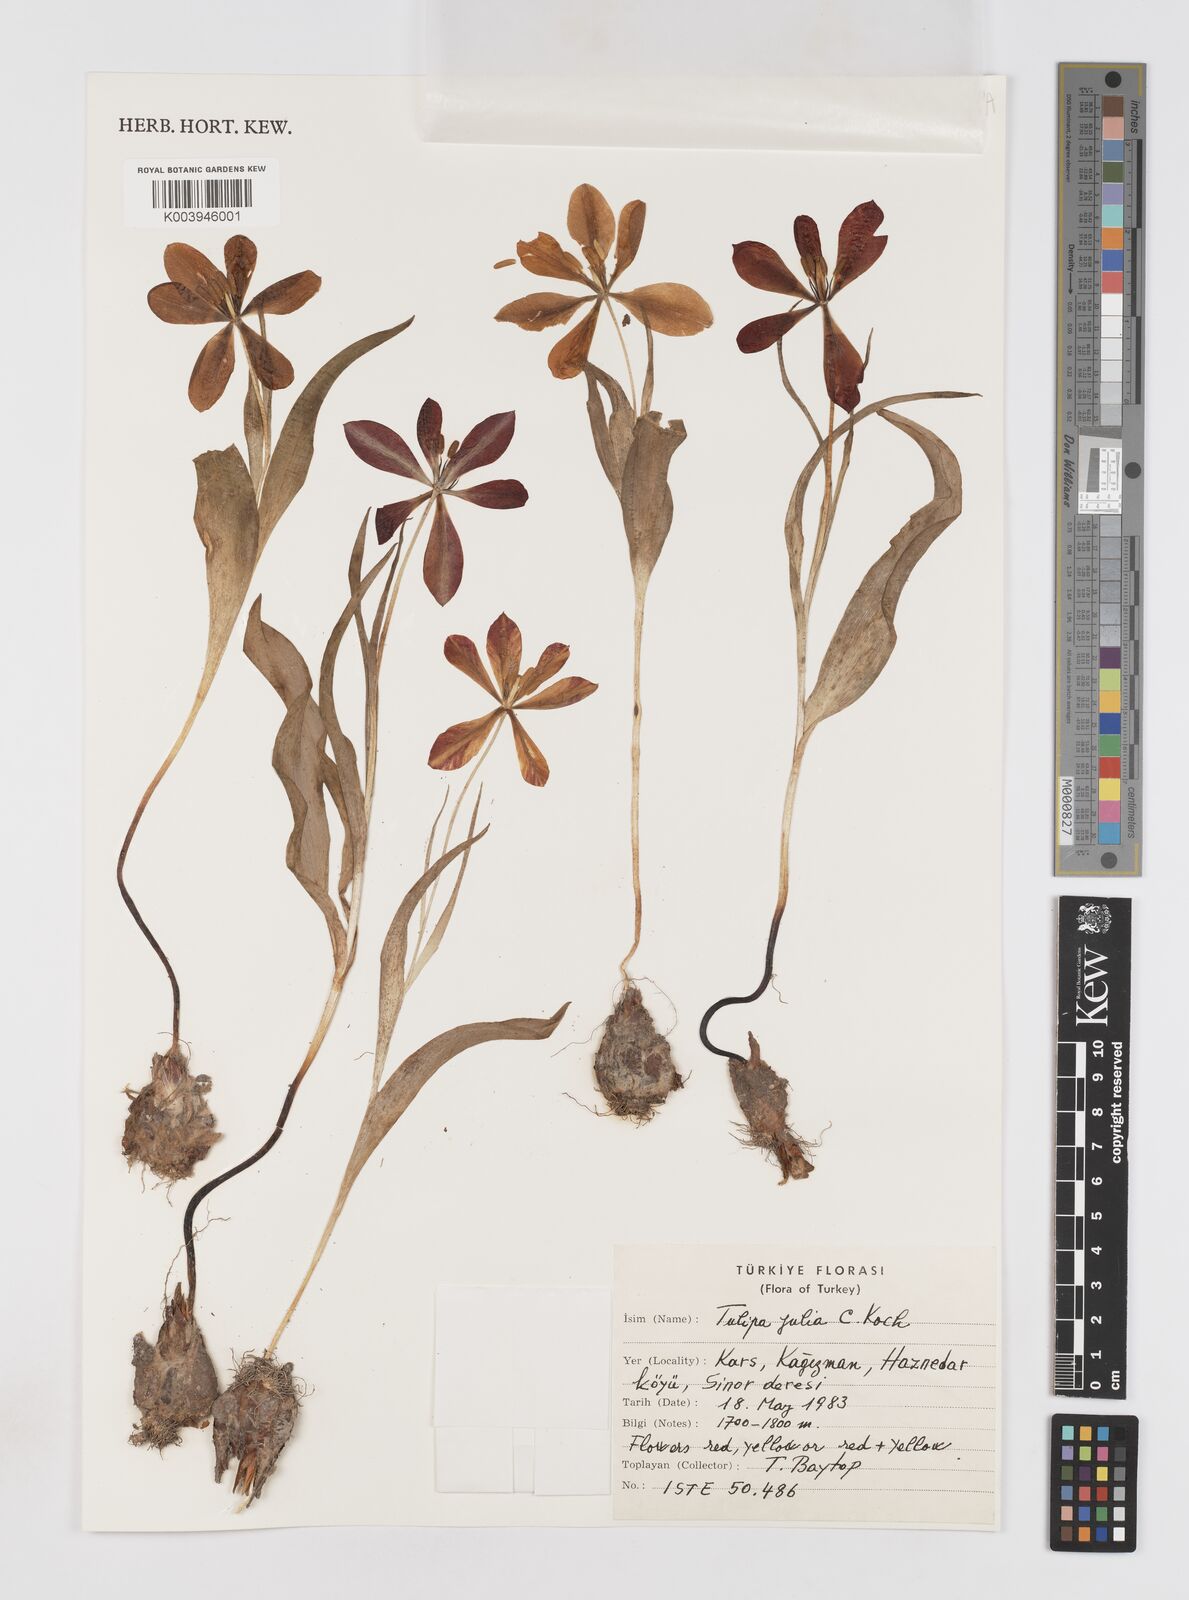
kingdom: Plantae
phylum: Tracheophyta
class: Liliopsida
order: Liliales
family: Liliaceae
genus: Tulipa
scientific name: Tulipa julia
